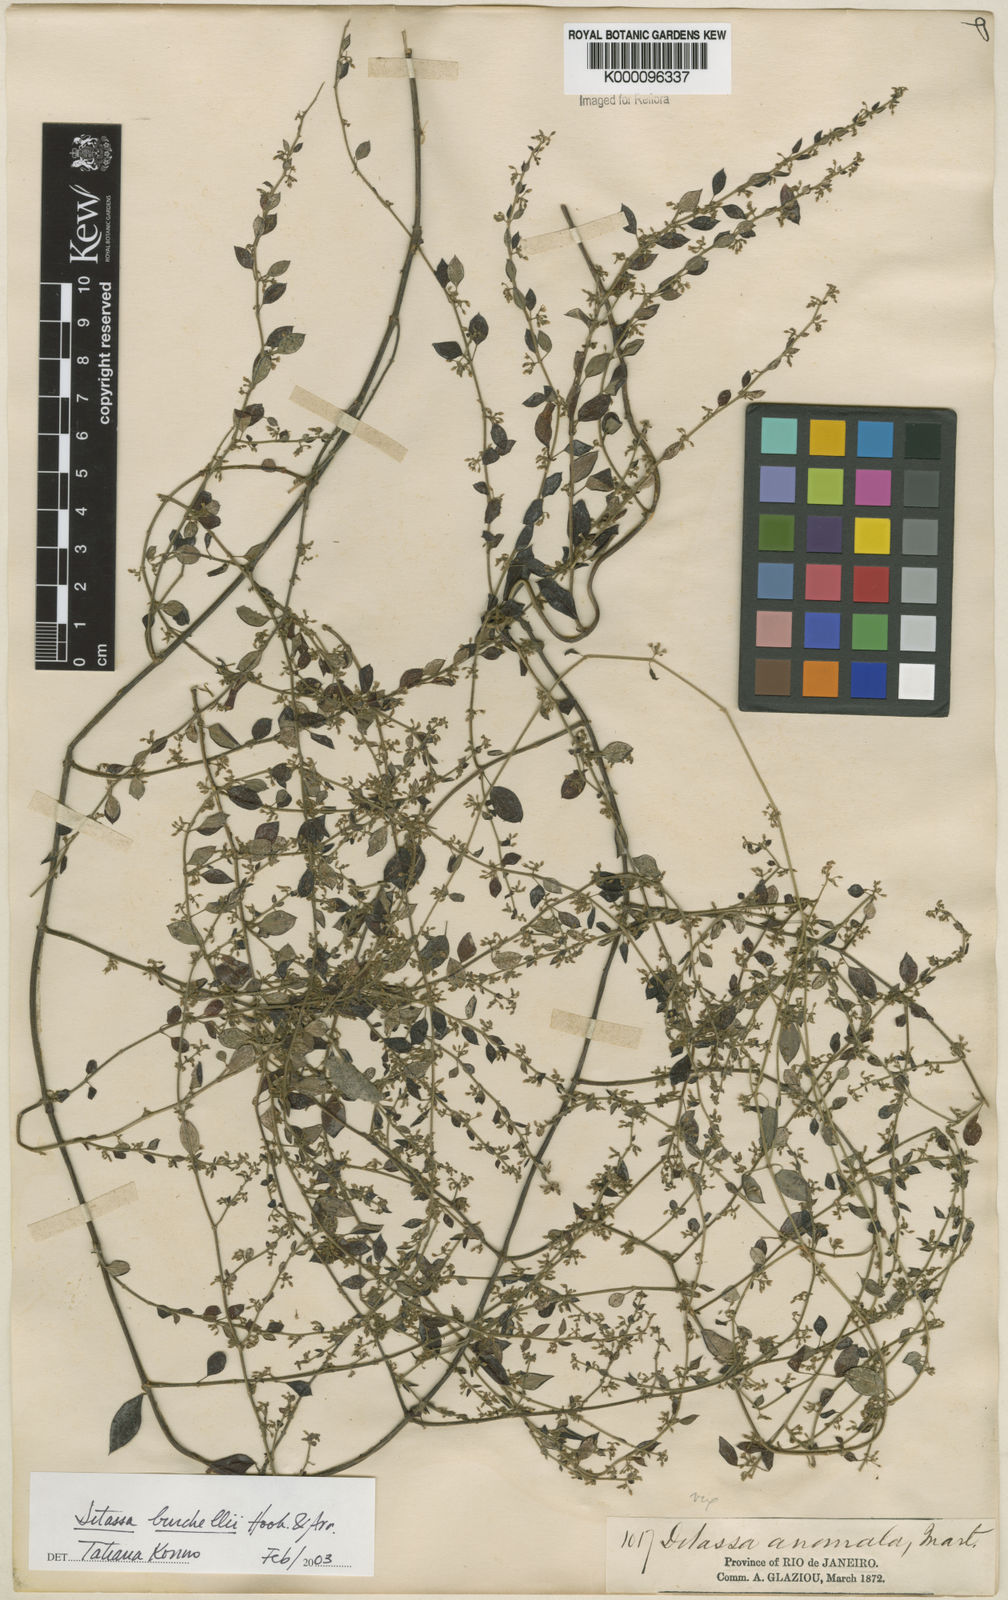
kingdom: Plantae
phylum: Tracheophyta
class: Magnoliopsida
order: Gentianales
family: Apocynaceae
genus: Metastelma
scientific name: Metastelma burchellii
